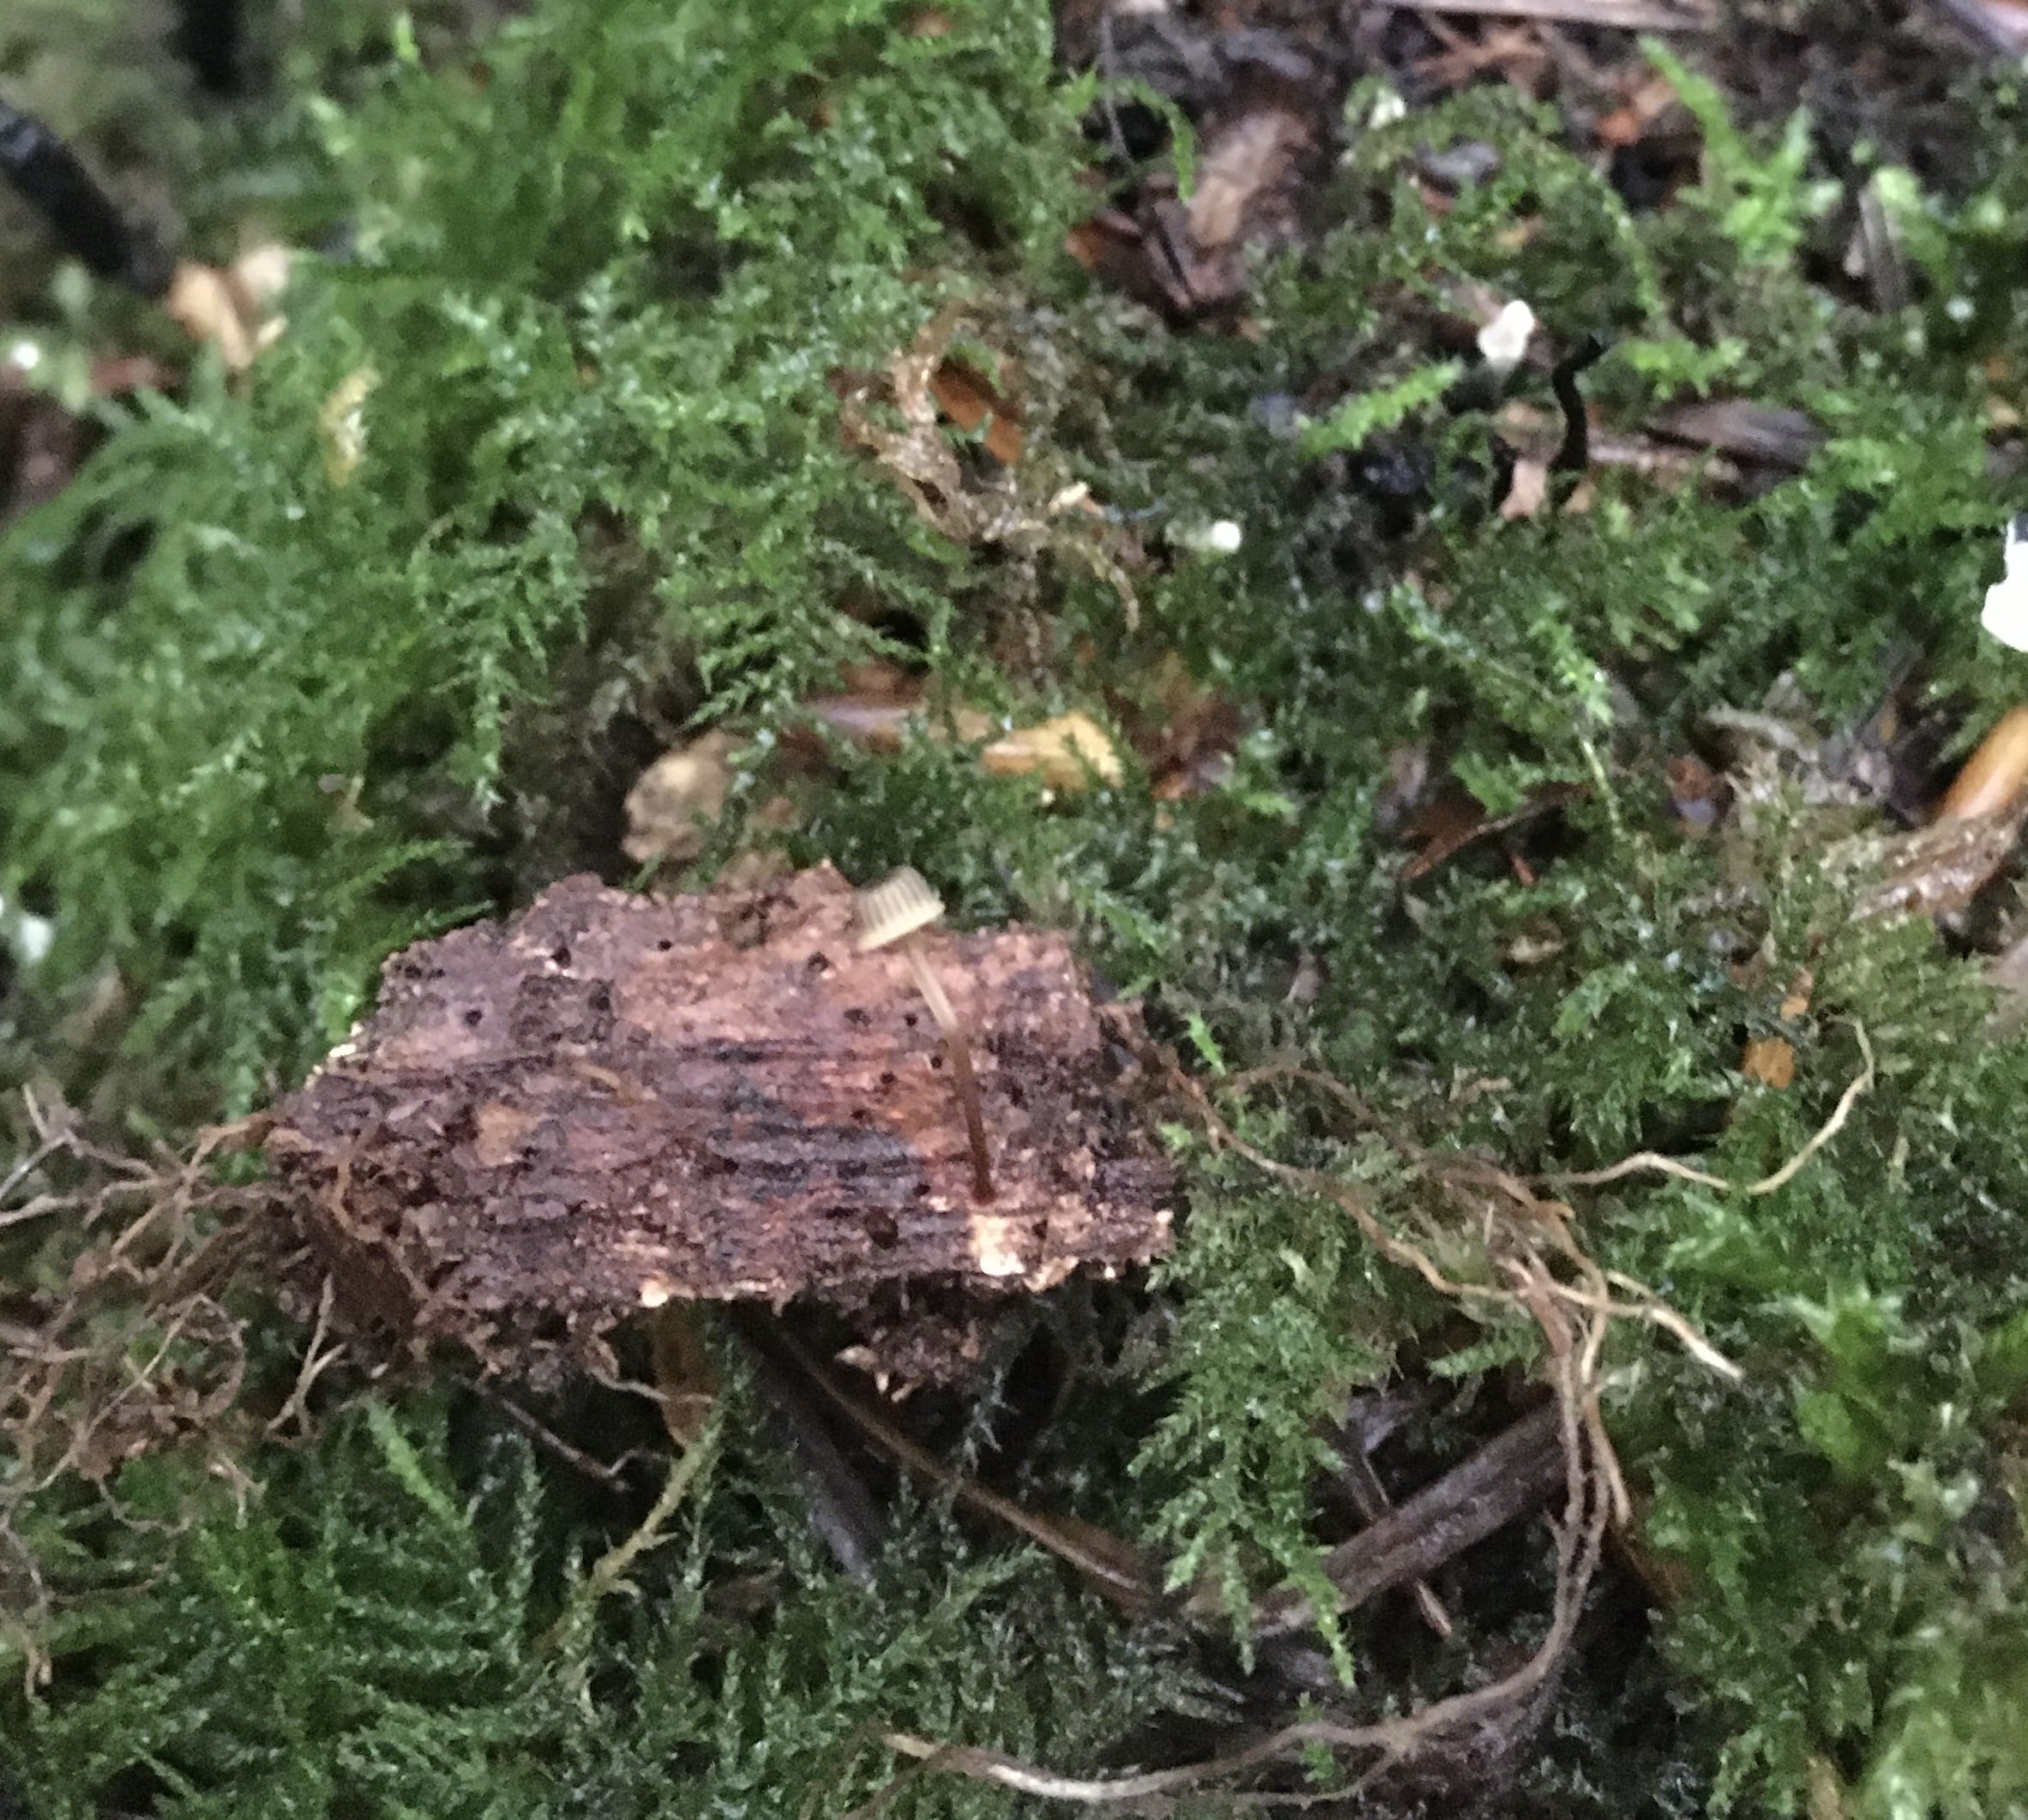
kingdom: Fungi
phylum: Basidiomycota
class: Agaricomycetes
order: Agaricales
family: Mycenaceae
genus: Mycena
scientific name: Mycena picta
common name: kantet huesvamp
